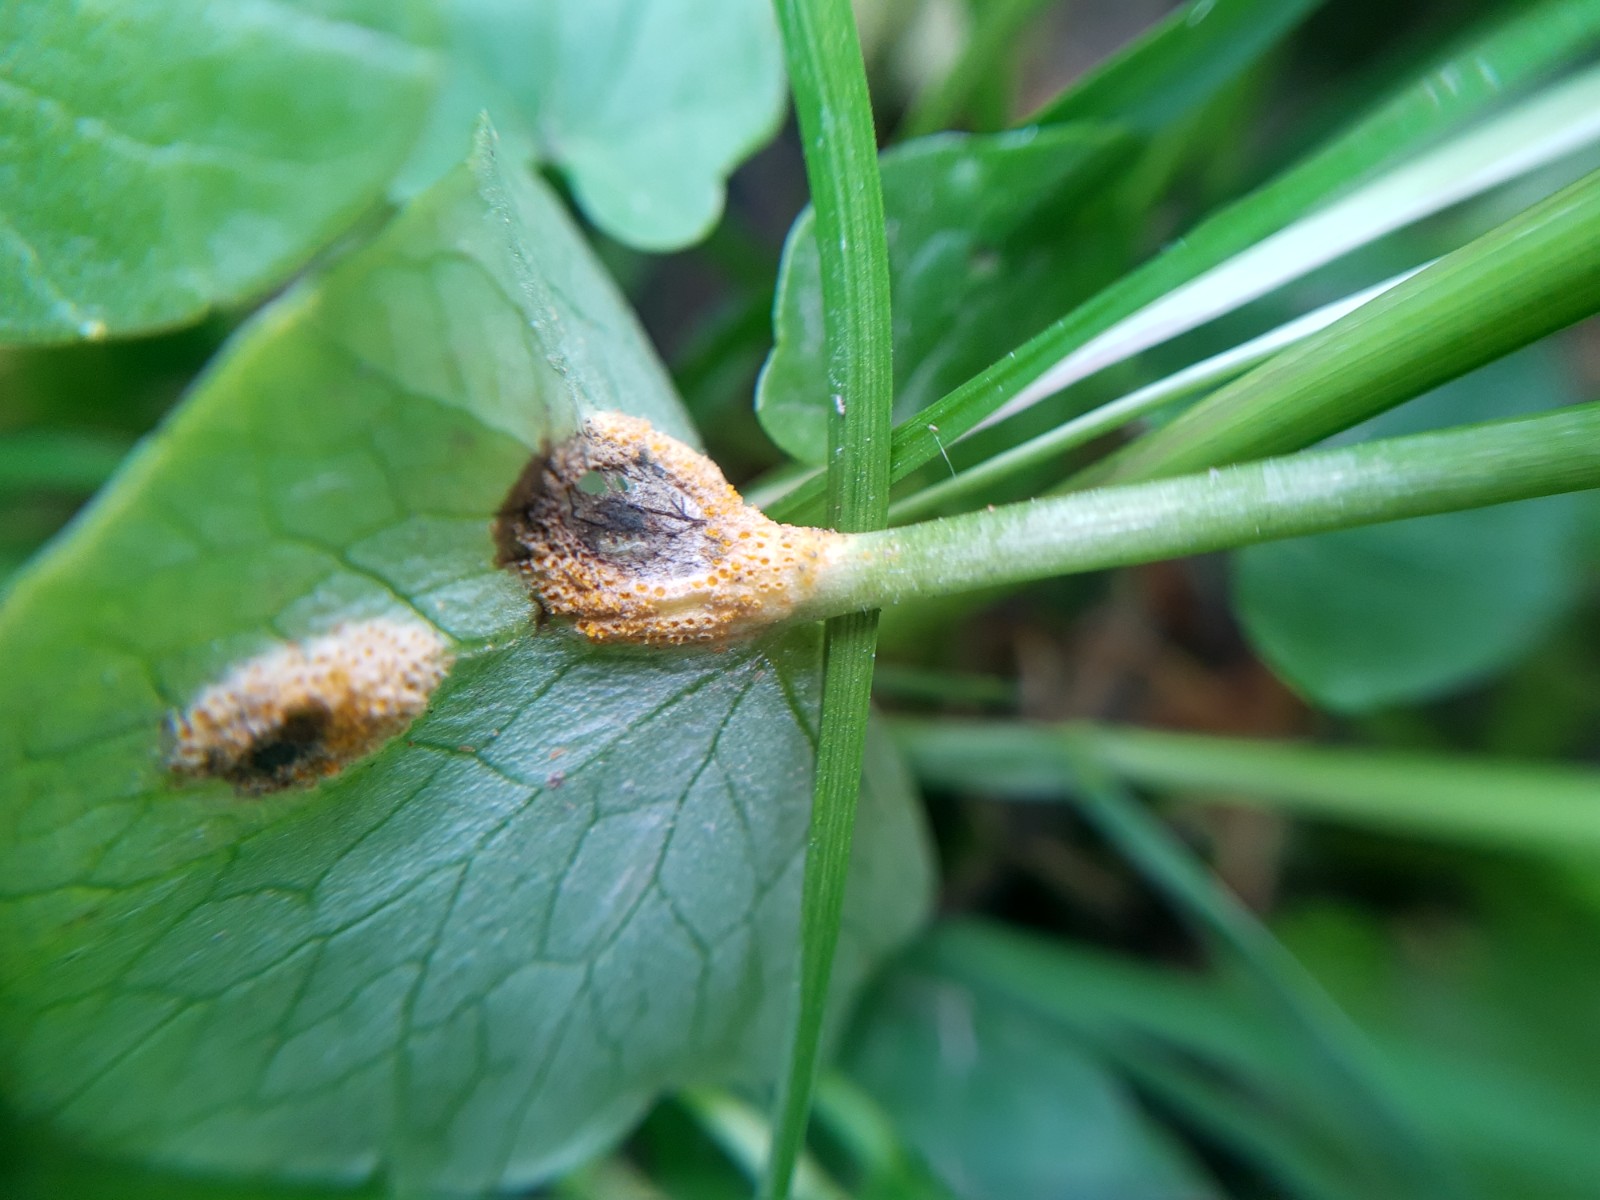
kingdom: Fungi
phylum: Basidiomycota
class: Pucciniomycetes
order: Pucciniales
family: Pucciniaceae
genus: Uromyces
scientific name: Uromyces dactylidis
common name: ranunkel-encellerust
